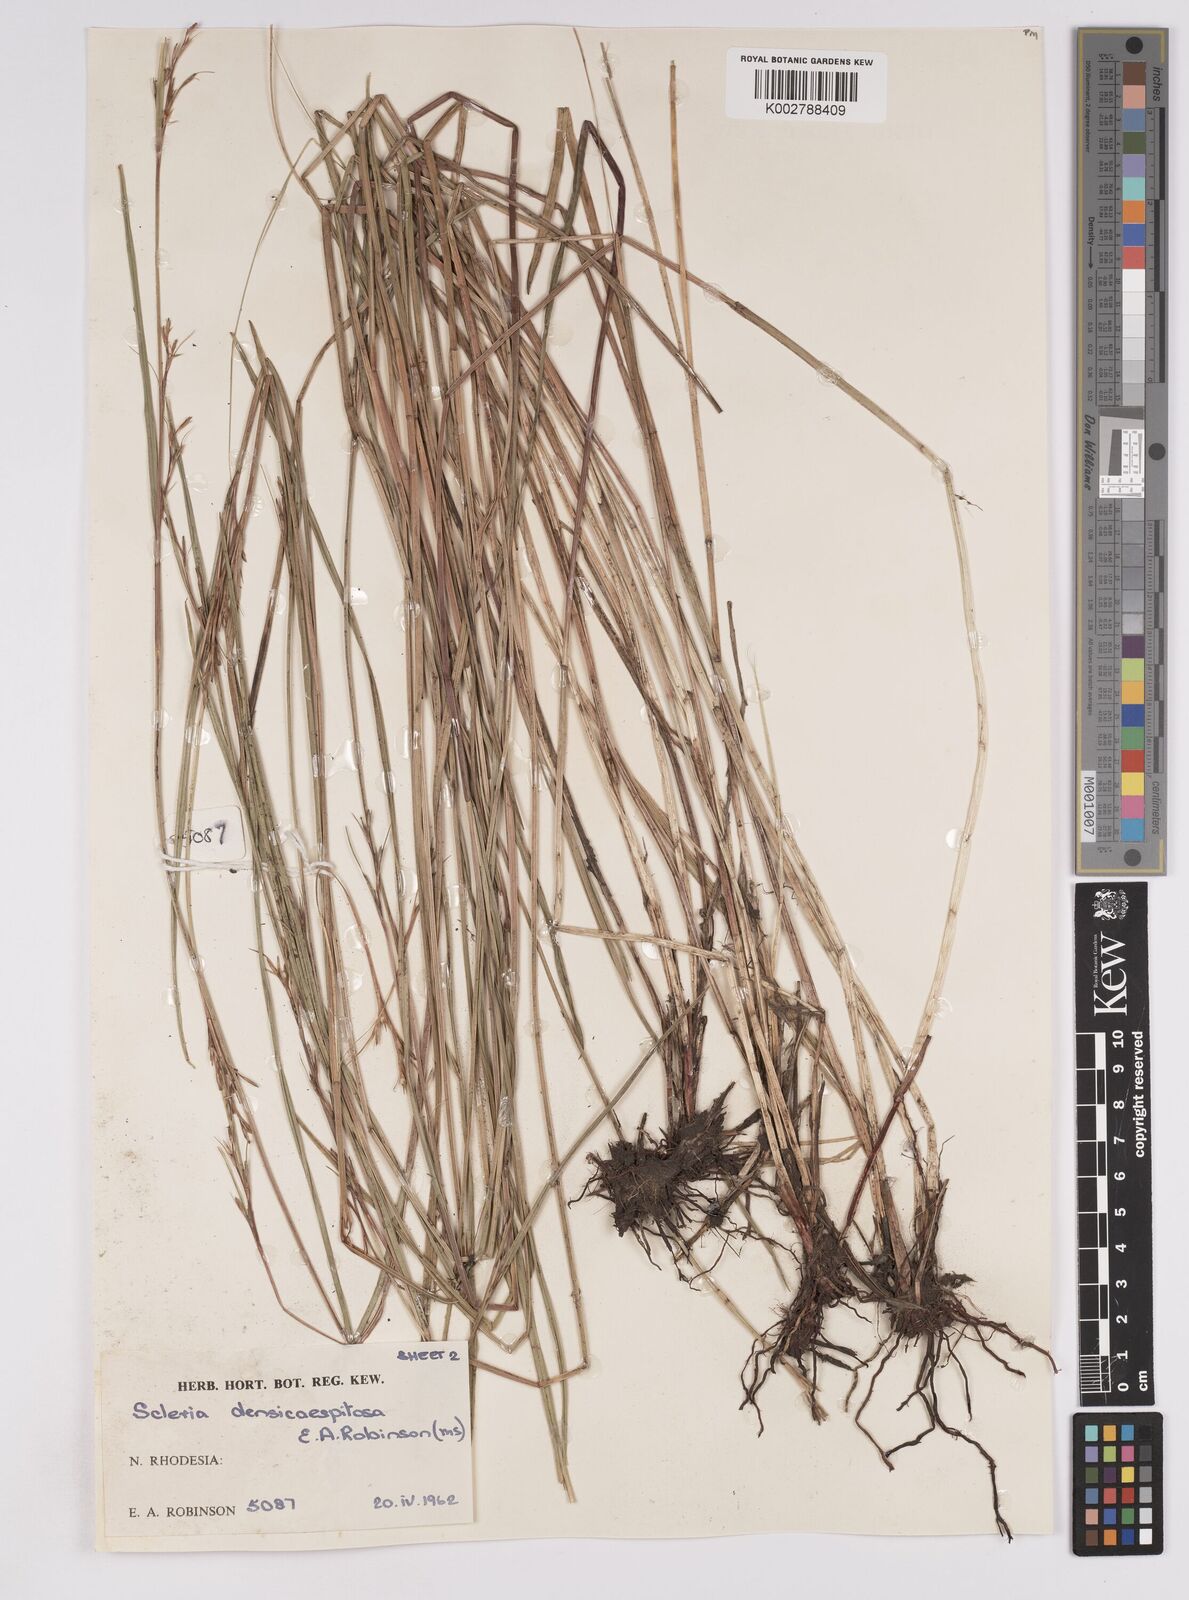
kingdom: Plantae
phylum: Tracheophyta
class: Liliopsida
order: Poales
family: Cyperaceae
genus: Scleria
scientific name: Scleria unguiculata
